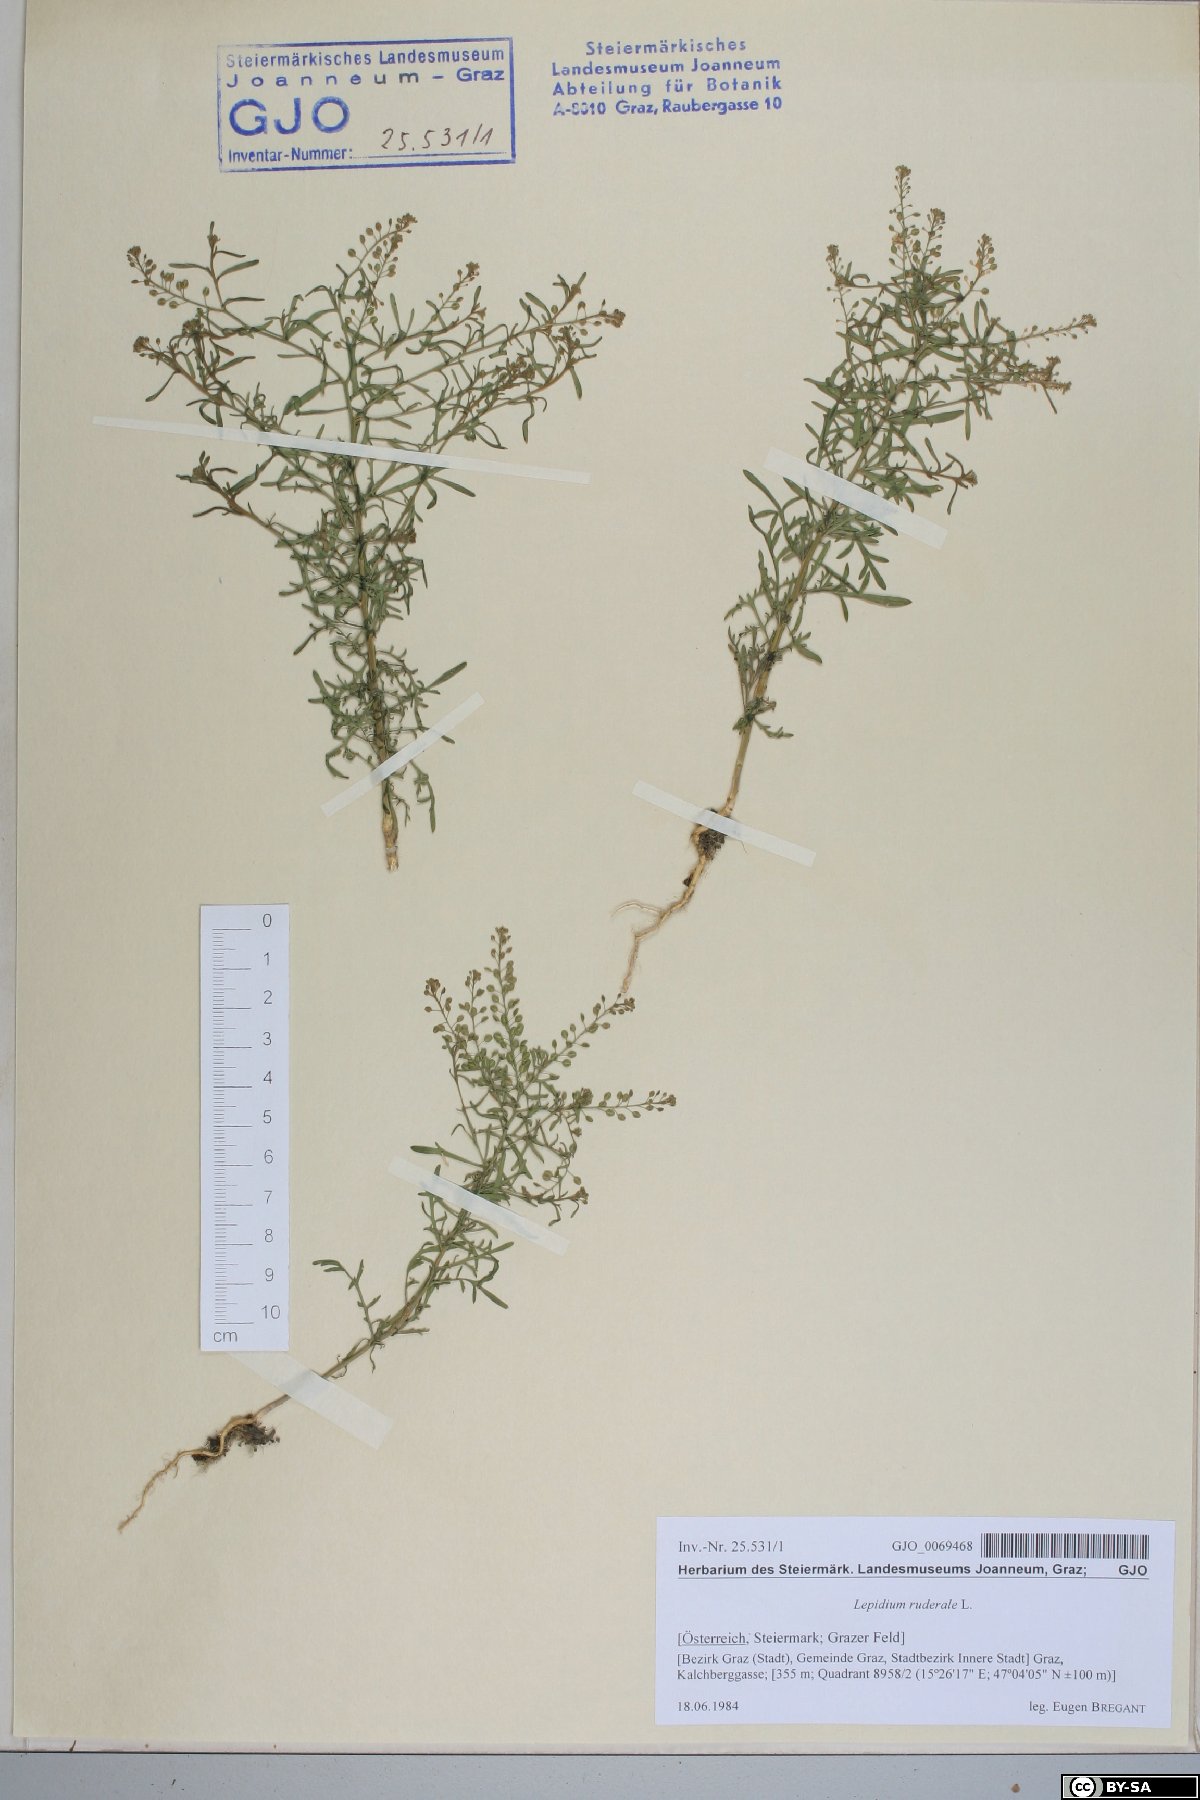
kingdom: Plantae
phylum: Tracheophyta
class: Magnoliopsida
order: Brassicales
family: Brassicaceae
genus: Lepidium
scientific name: Lepidium ruderale
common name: Narrow-leaved pepperwort
